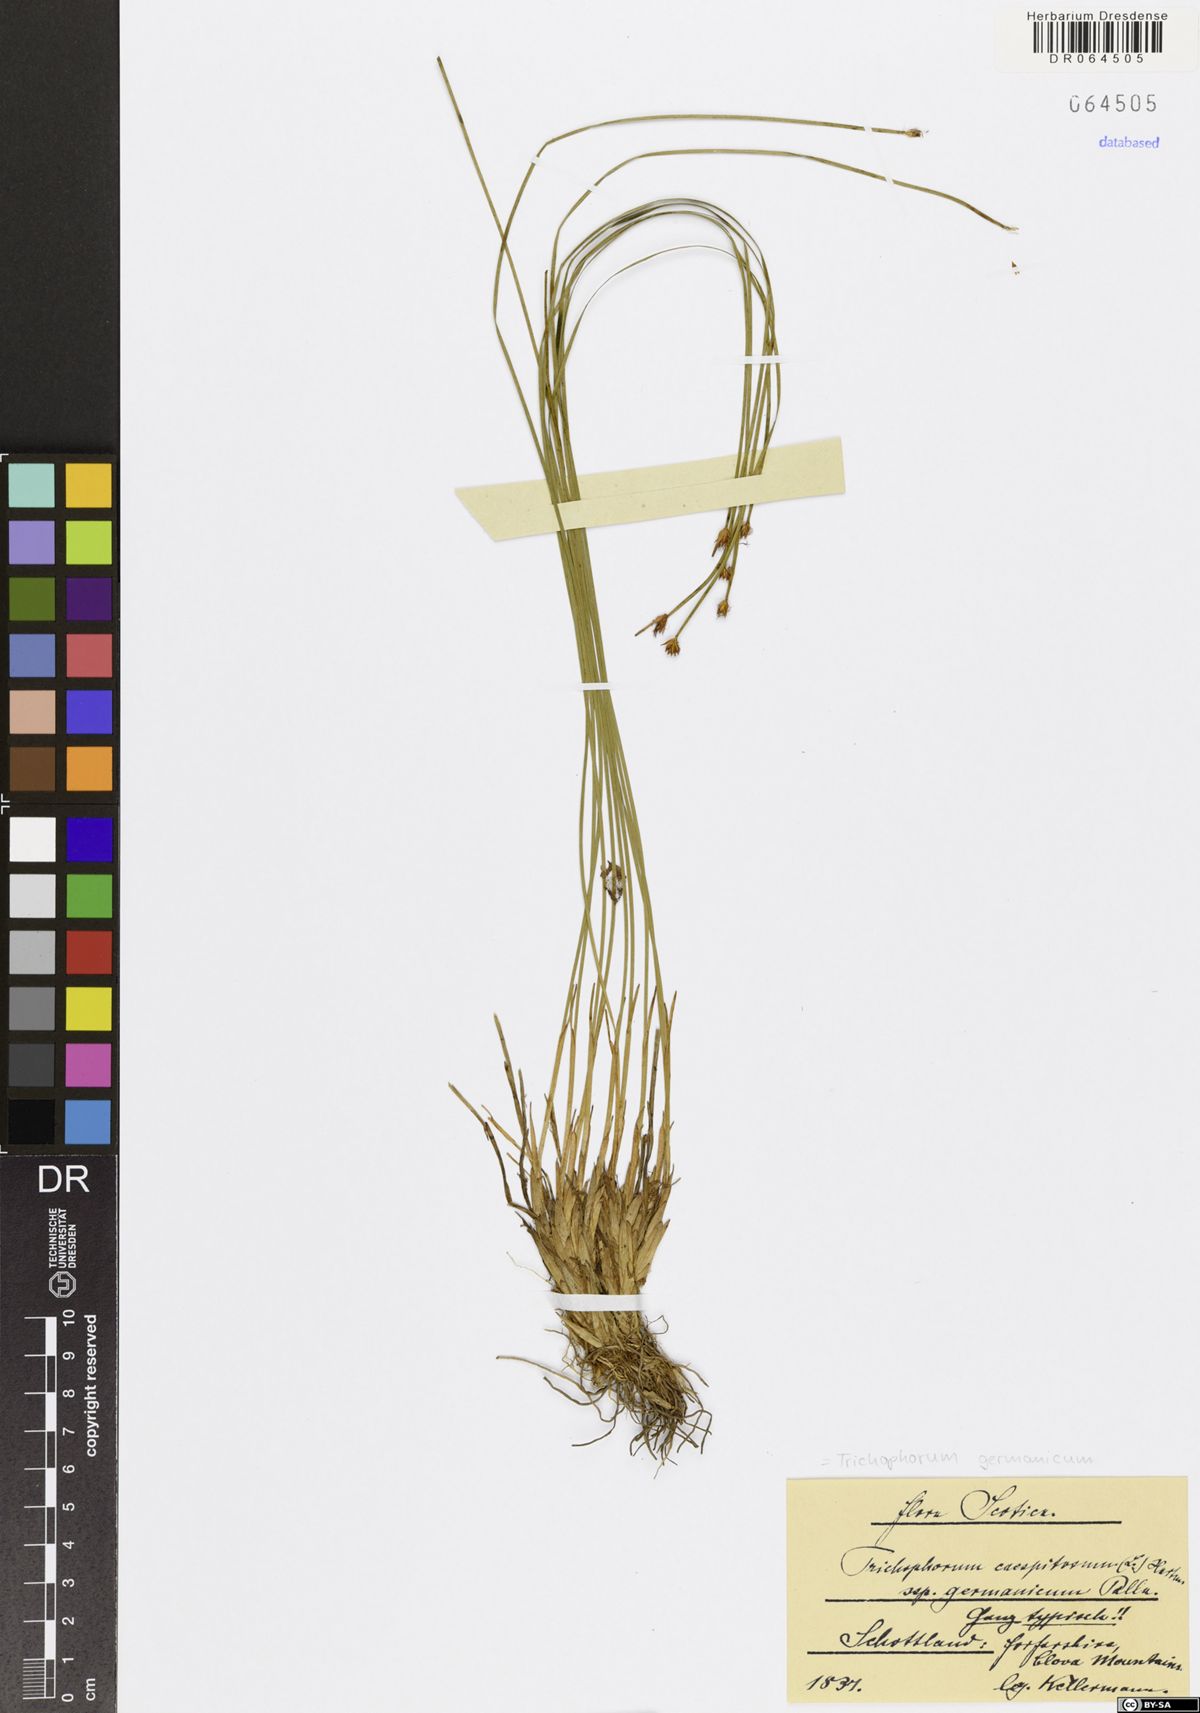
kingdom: Plantae
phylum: Tracheophyta
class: Liliopsida
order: Poales
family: Cyperaceae
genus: Trichophorum
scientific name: Trichophorum cespitosum
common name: Cespitose bulrush
